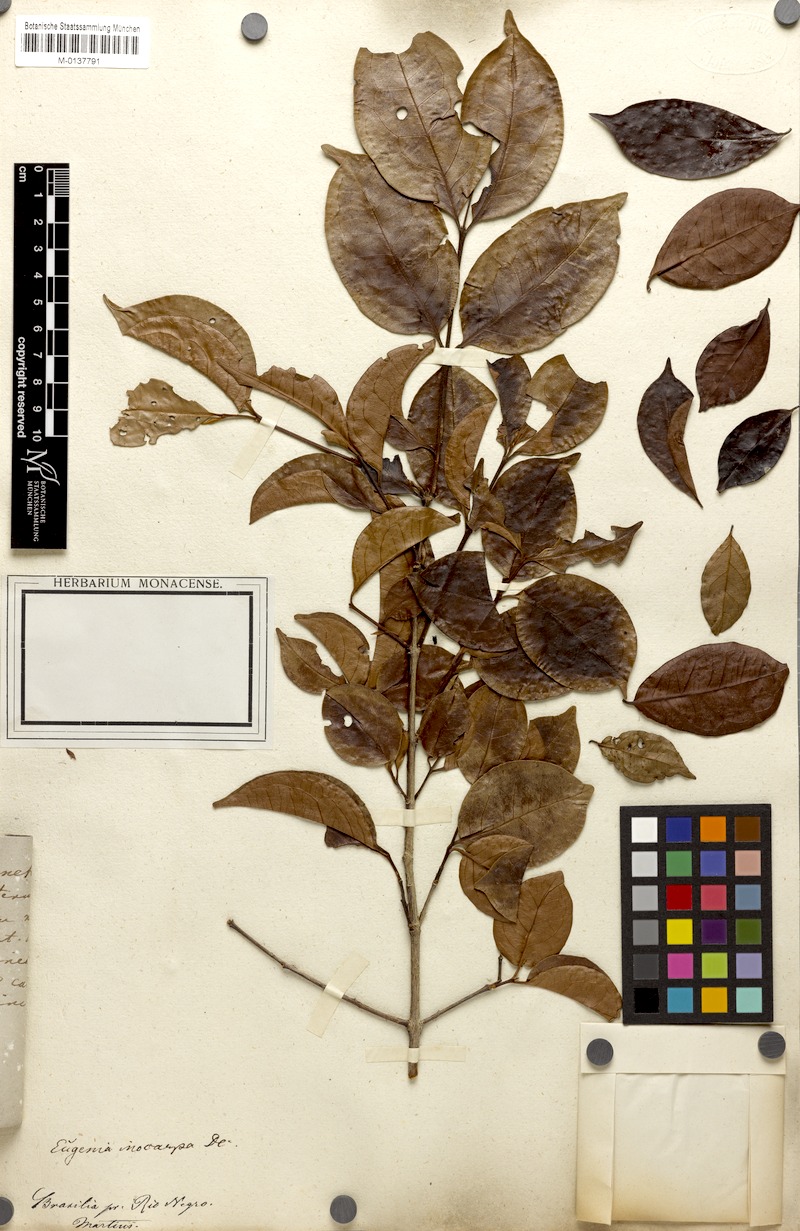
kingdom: Plantae
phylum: Tracheophyta
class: Magnoliopsida
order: Myrtales
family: Myrtaceae
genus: Eugenia
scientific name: Eugenia patrisii
